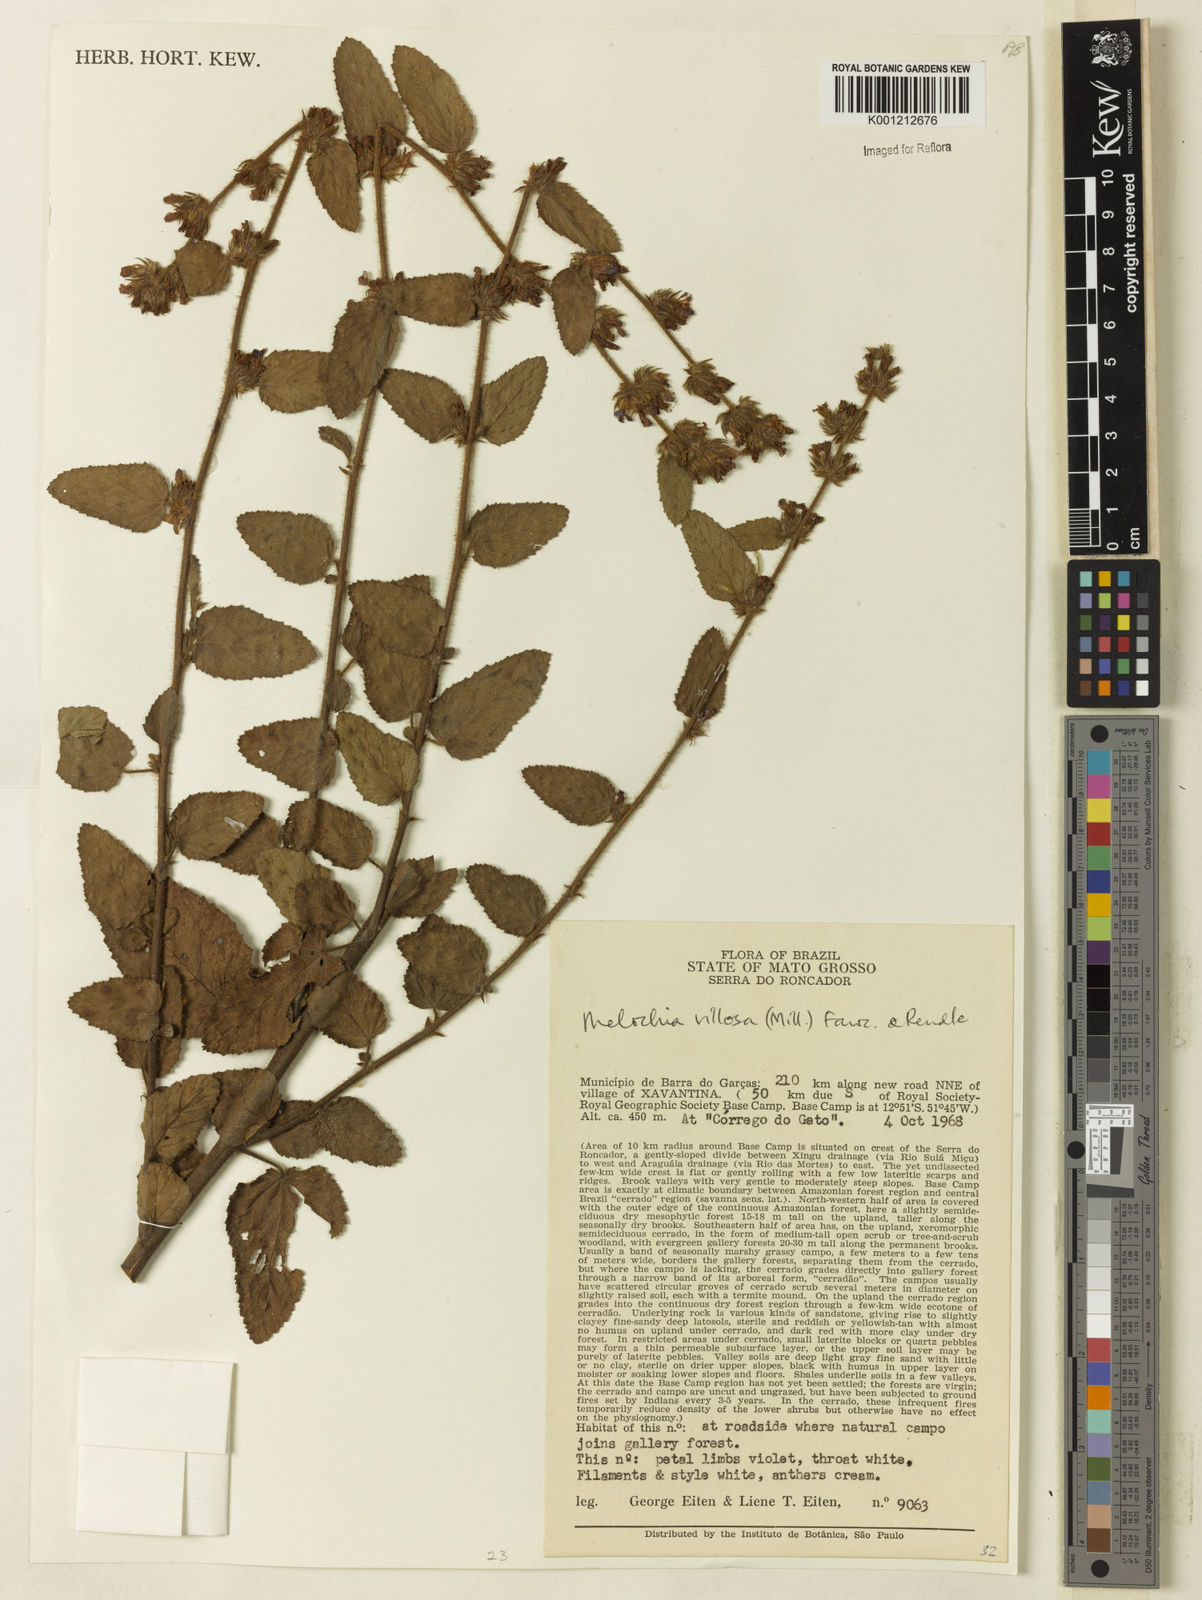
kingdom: Plantae
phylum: Tracheophyta
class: Magnoliopsida
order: Malvales
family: Malvaceae
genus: Melochia
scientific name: Melochia spicata
